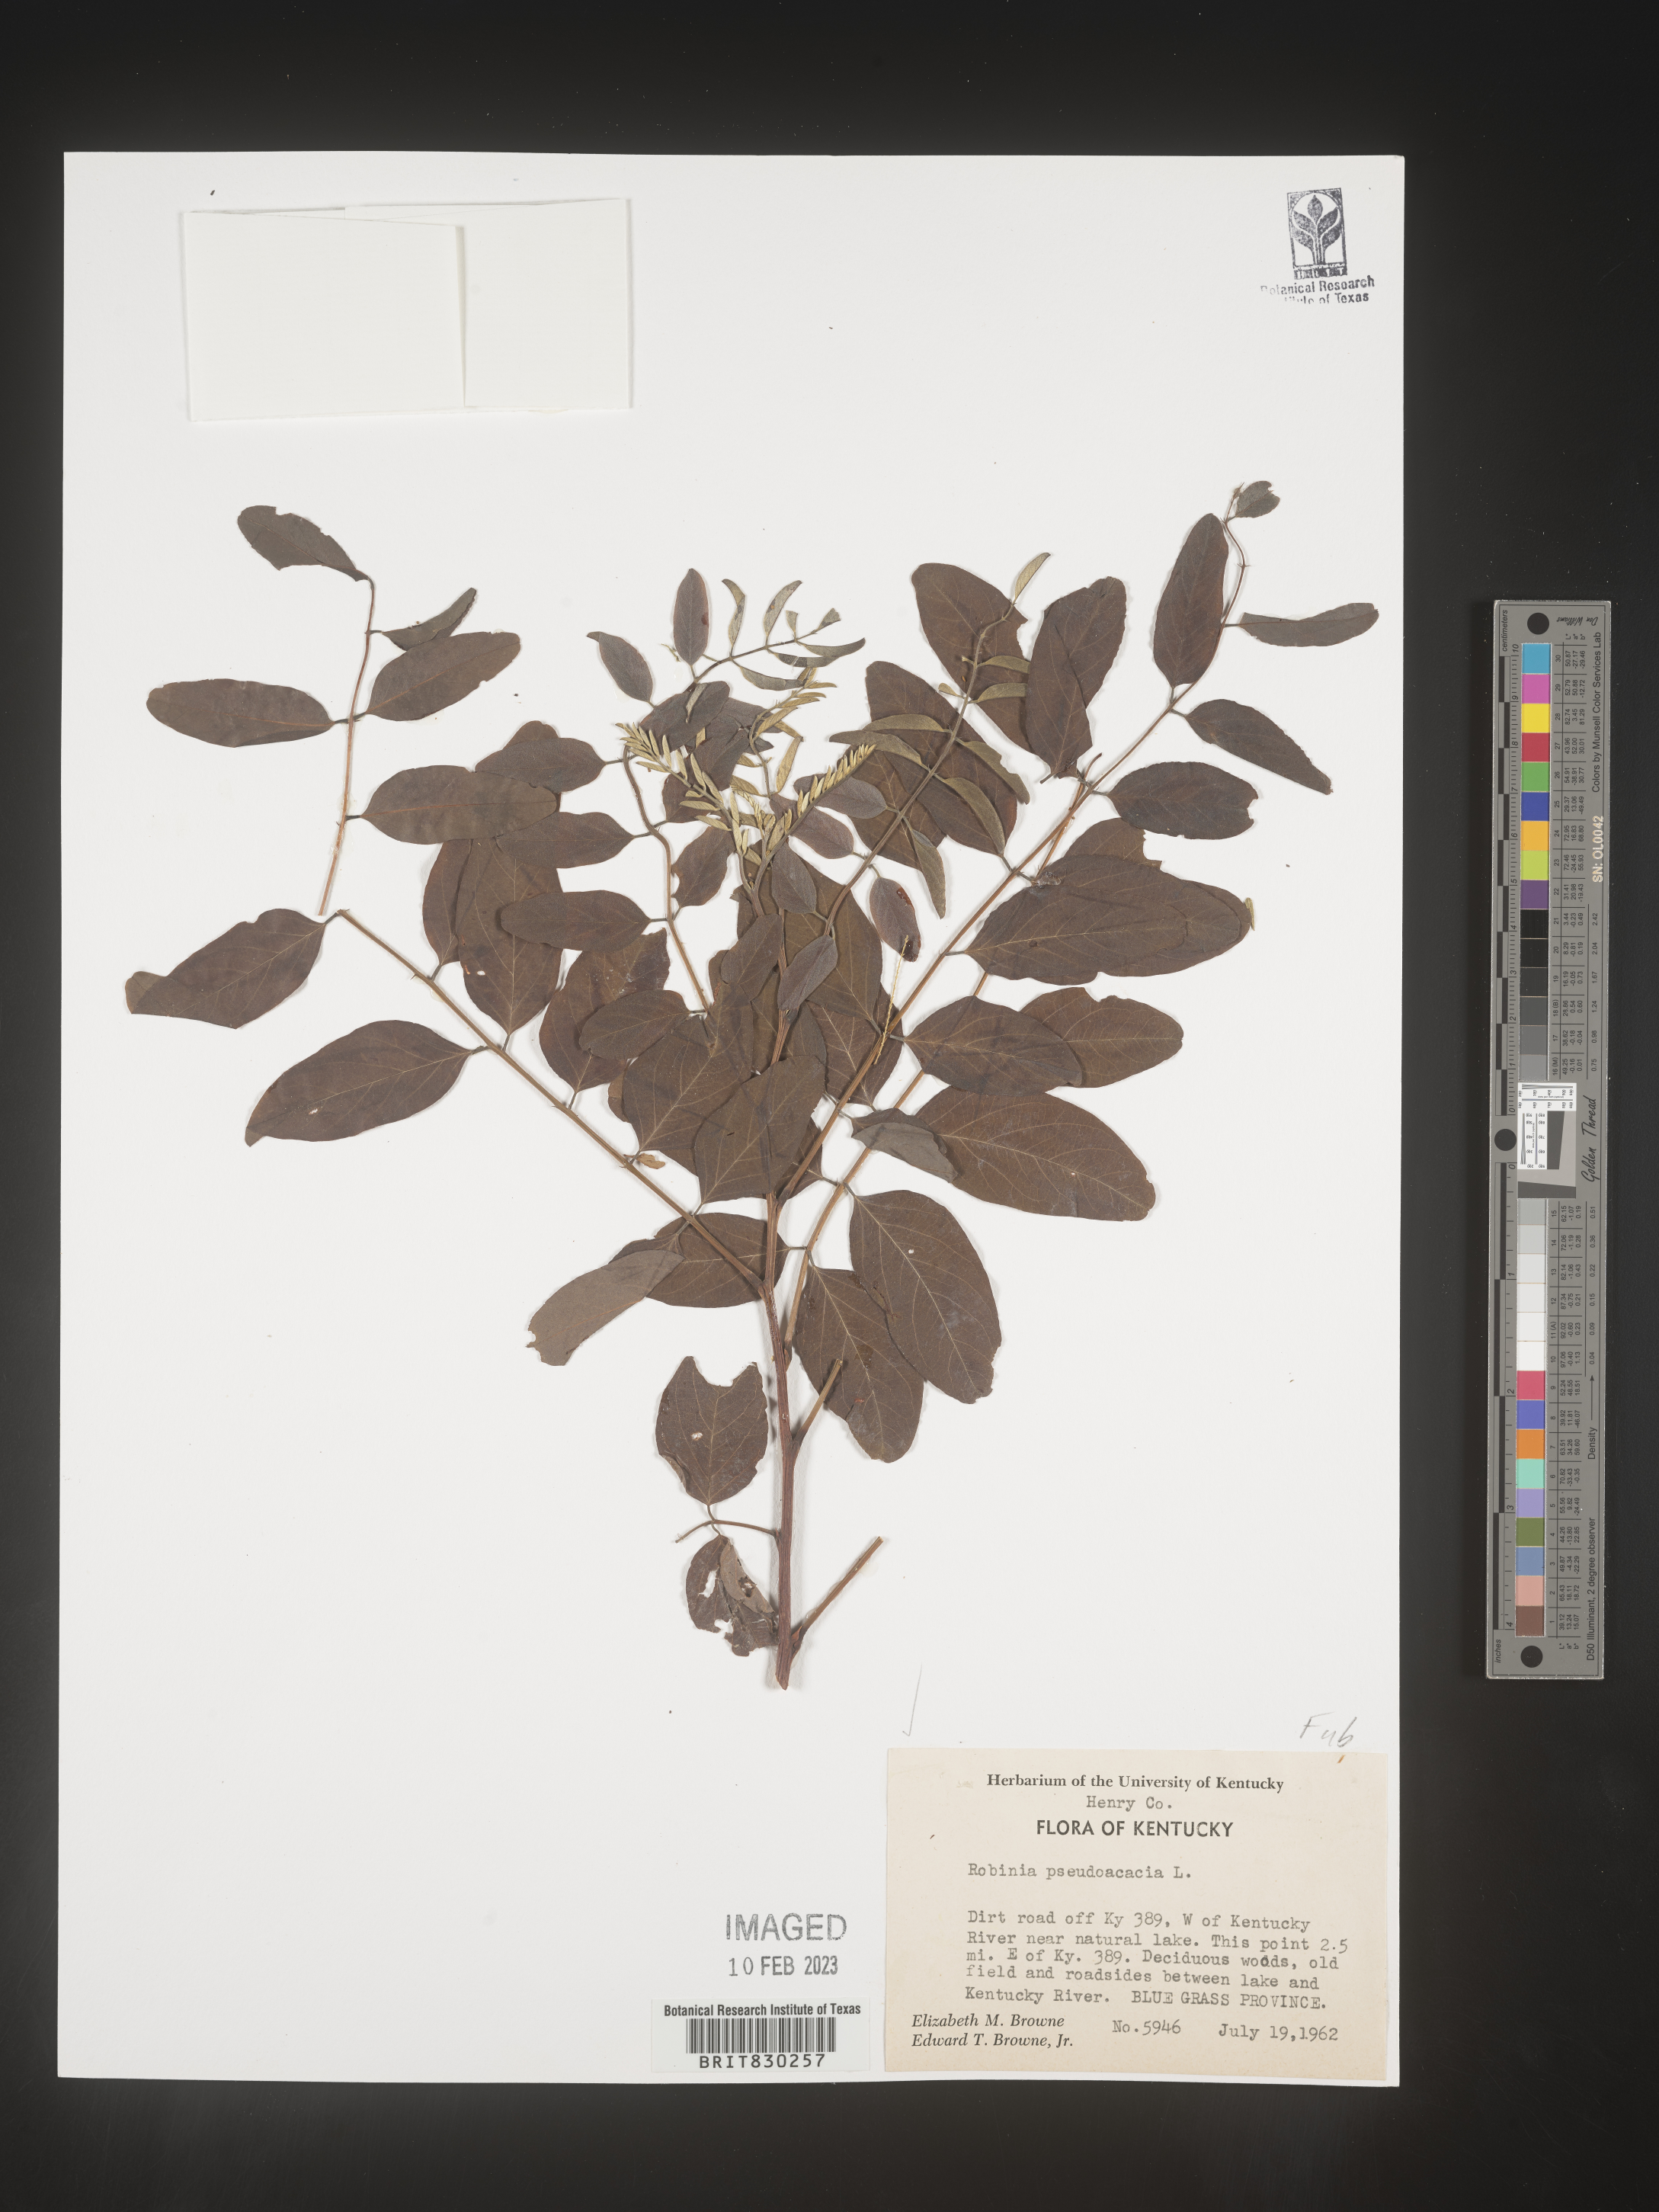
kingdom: Plantae
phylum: Tracheophyta
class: Magnoliopsida
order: Fabales
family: Fabaceae
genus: Robinia
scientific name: Robinia pseudoacacia
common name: Black locust
